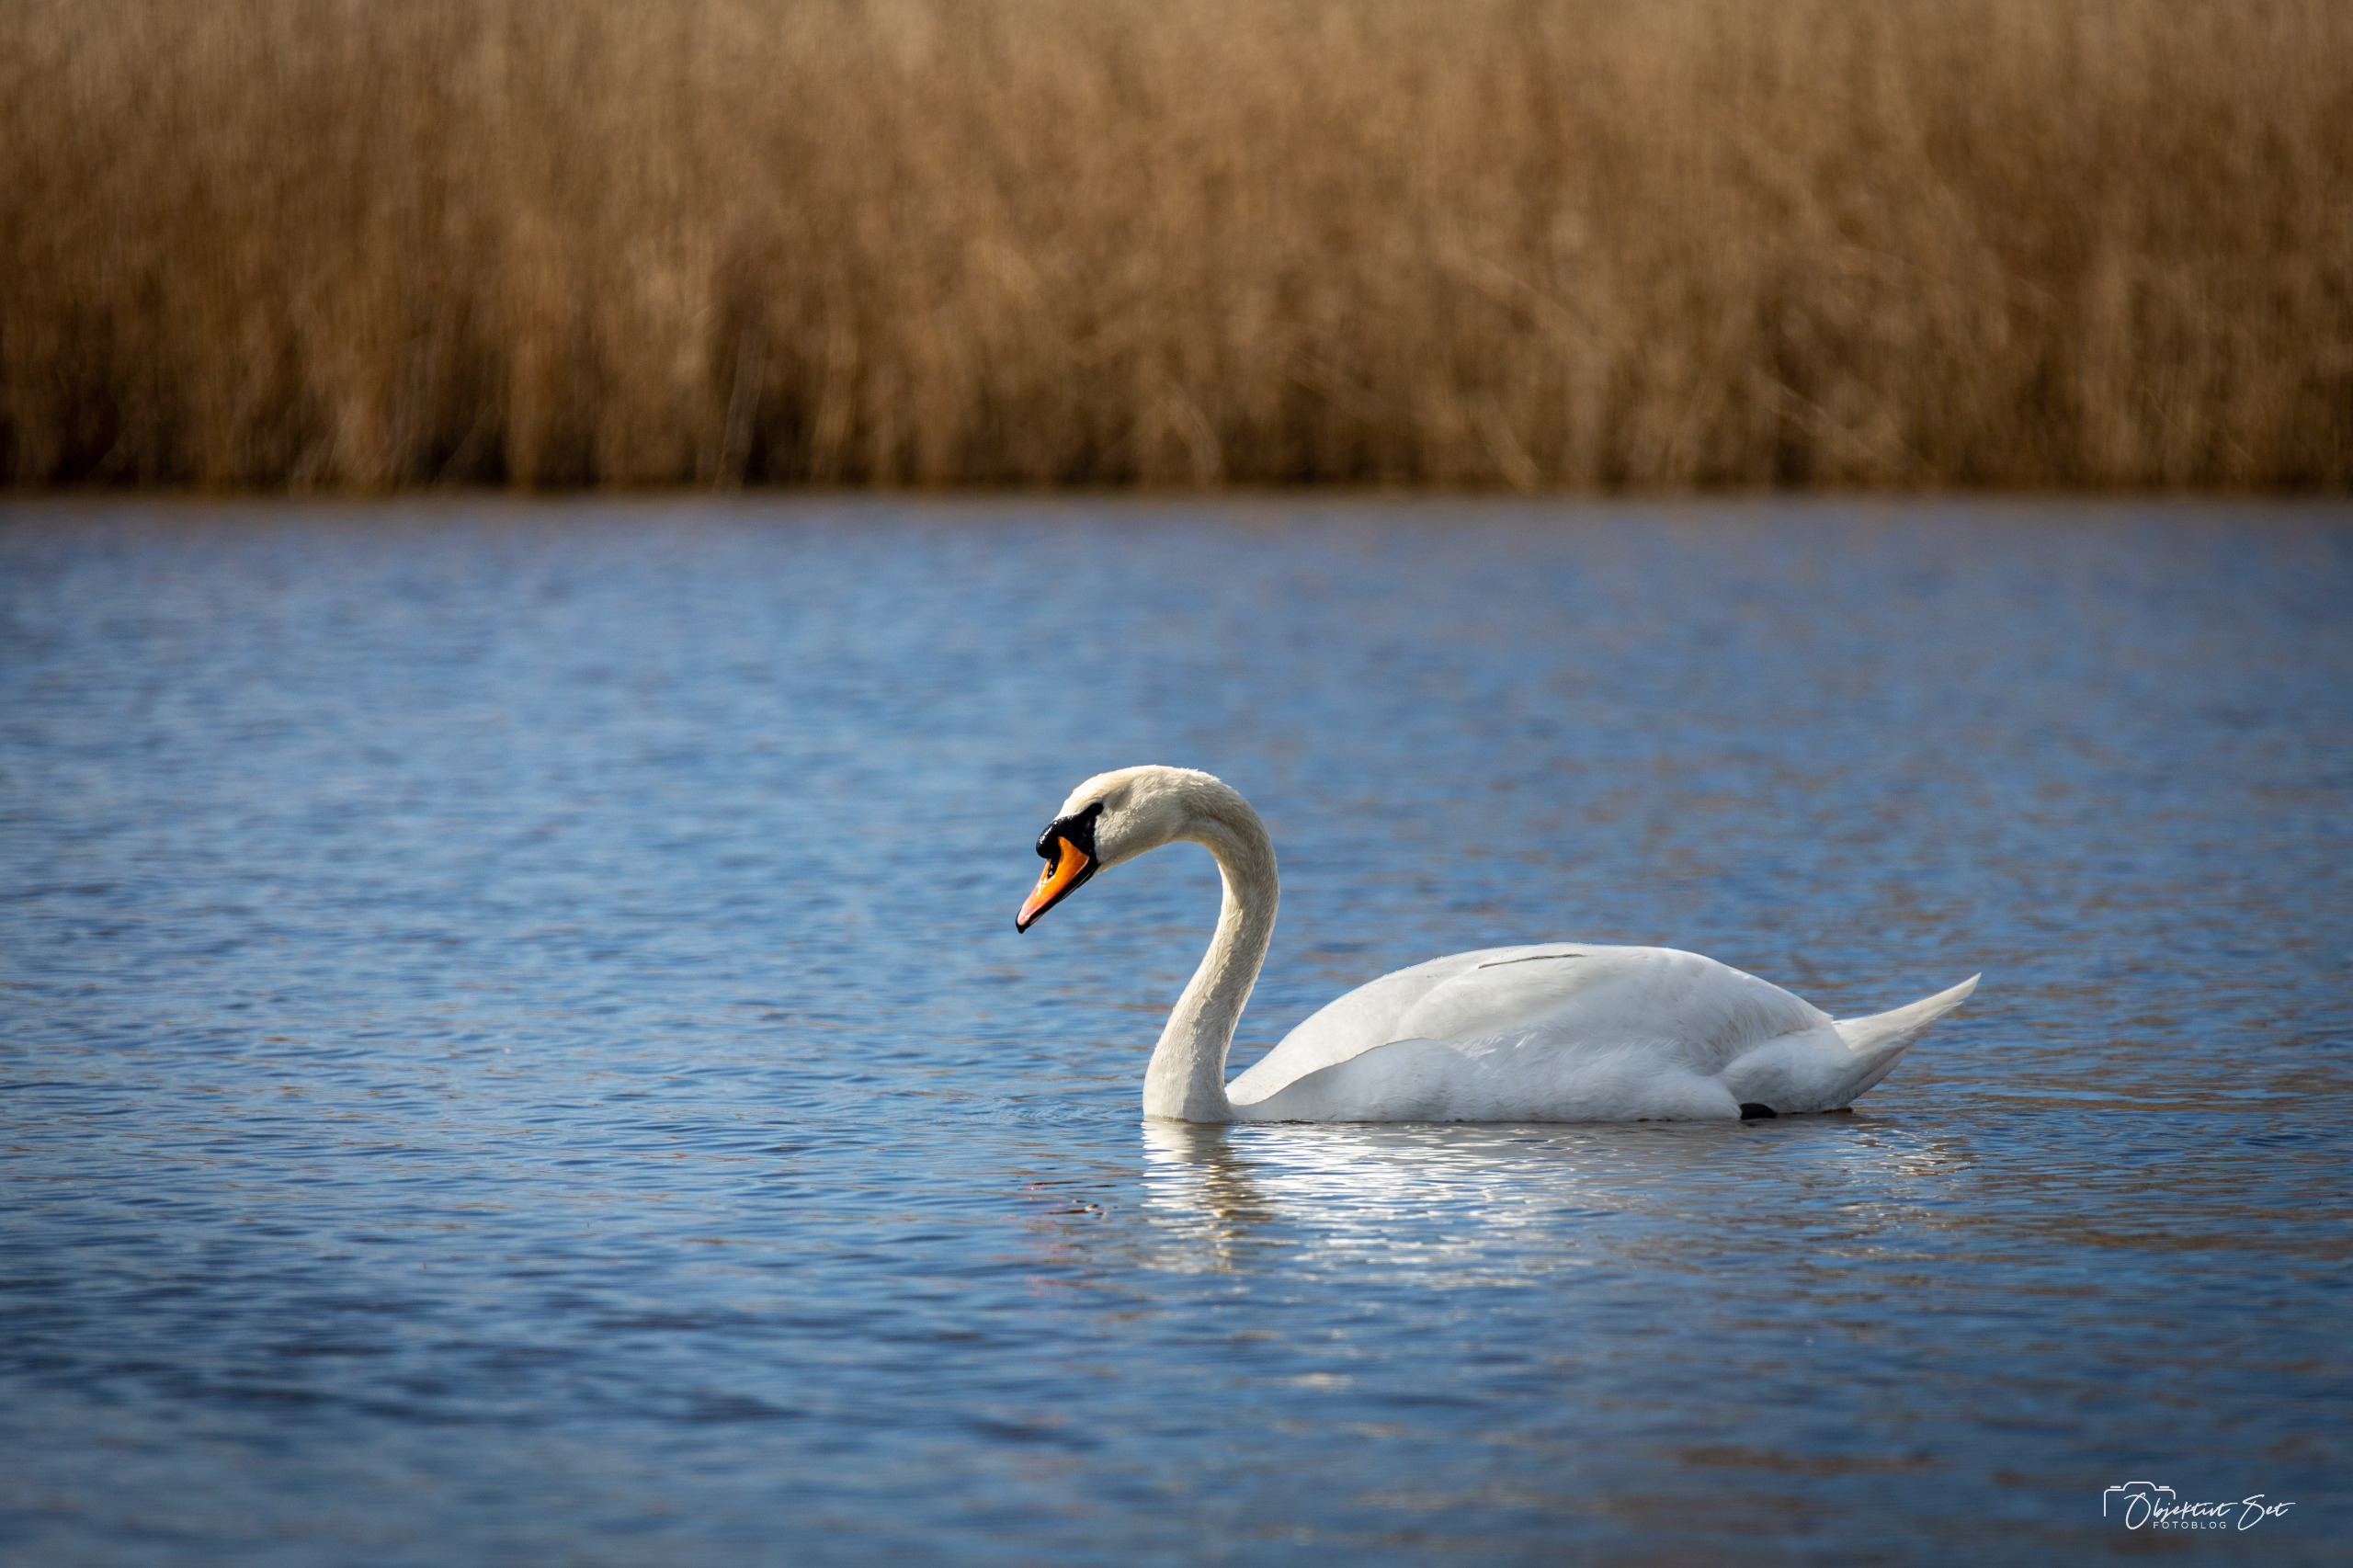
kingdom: Animalia
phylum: Chordata
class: Aves
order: Anseriformes
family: Anatidae
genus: Cygnus
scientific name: Cygnus olor
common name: Knopsvane
